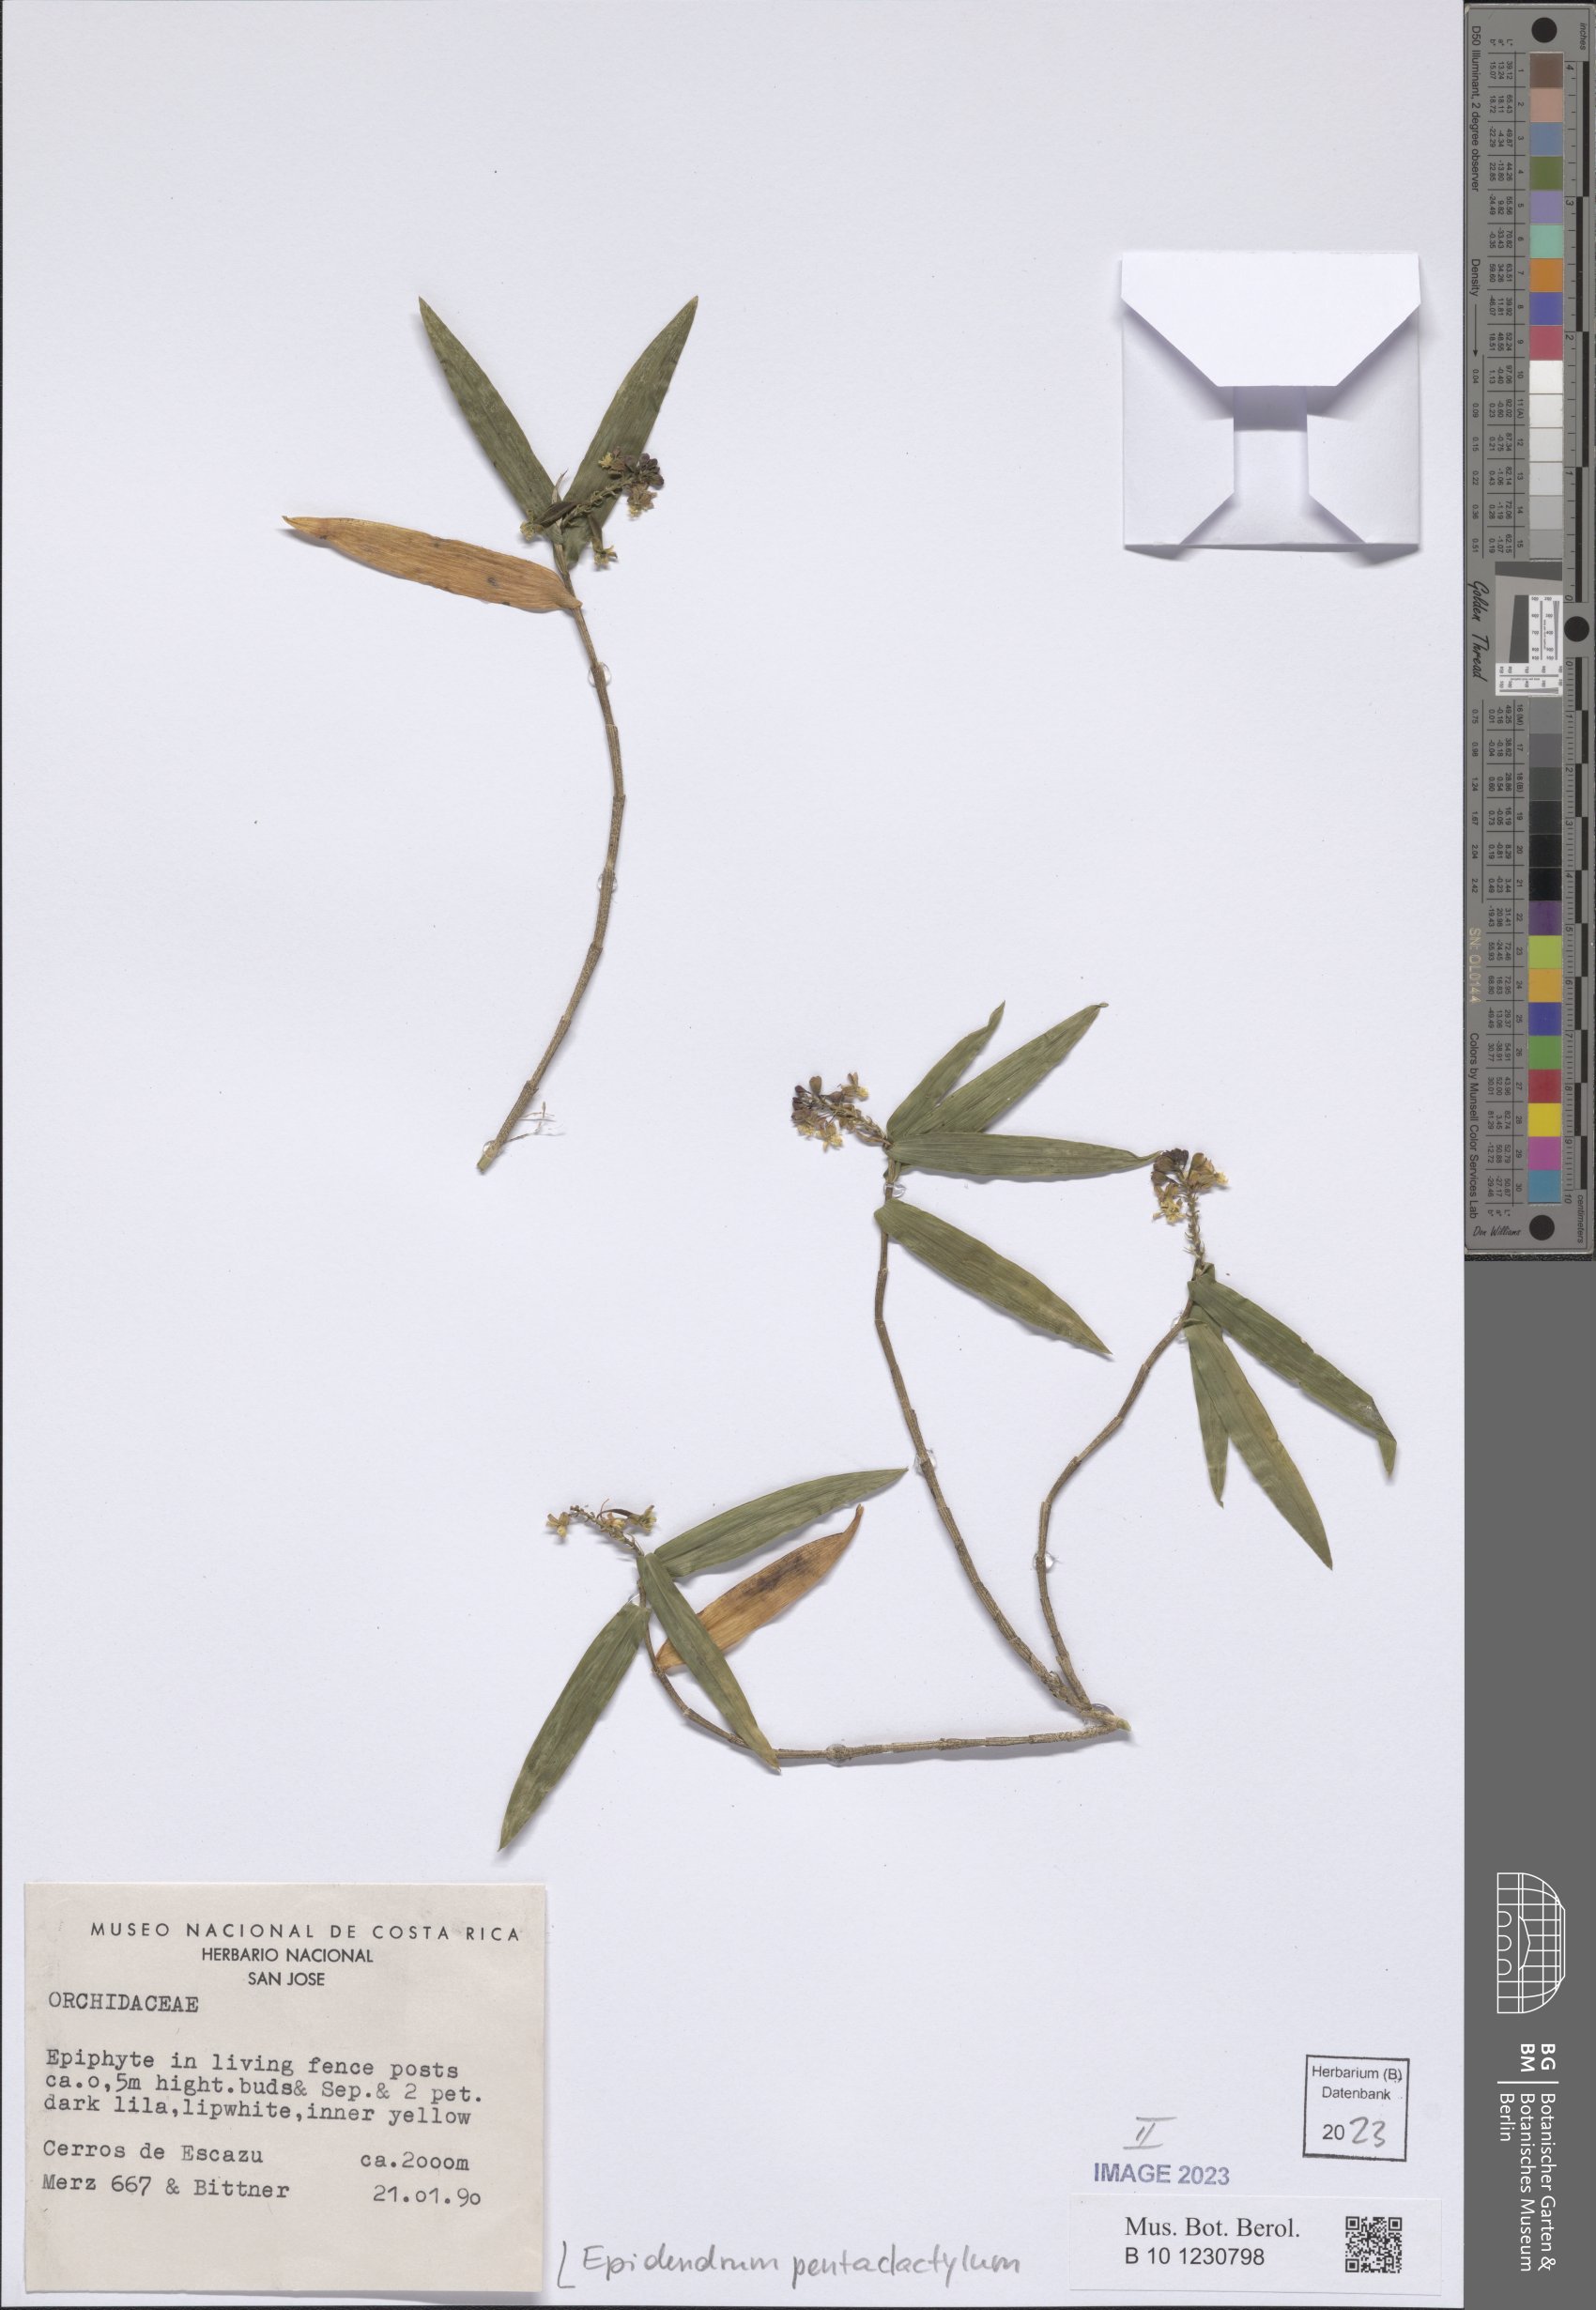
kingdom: Plantae
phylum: Tracheophyta
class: Liliopsida
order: Asparagales
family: Orchidaceae
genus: Epidendrum
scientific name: Epidendrum pentadactylum
